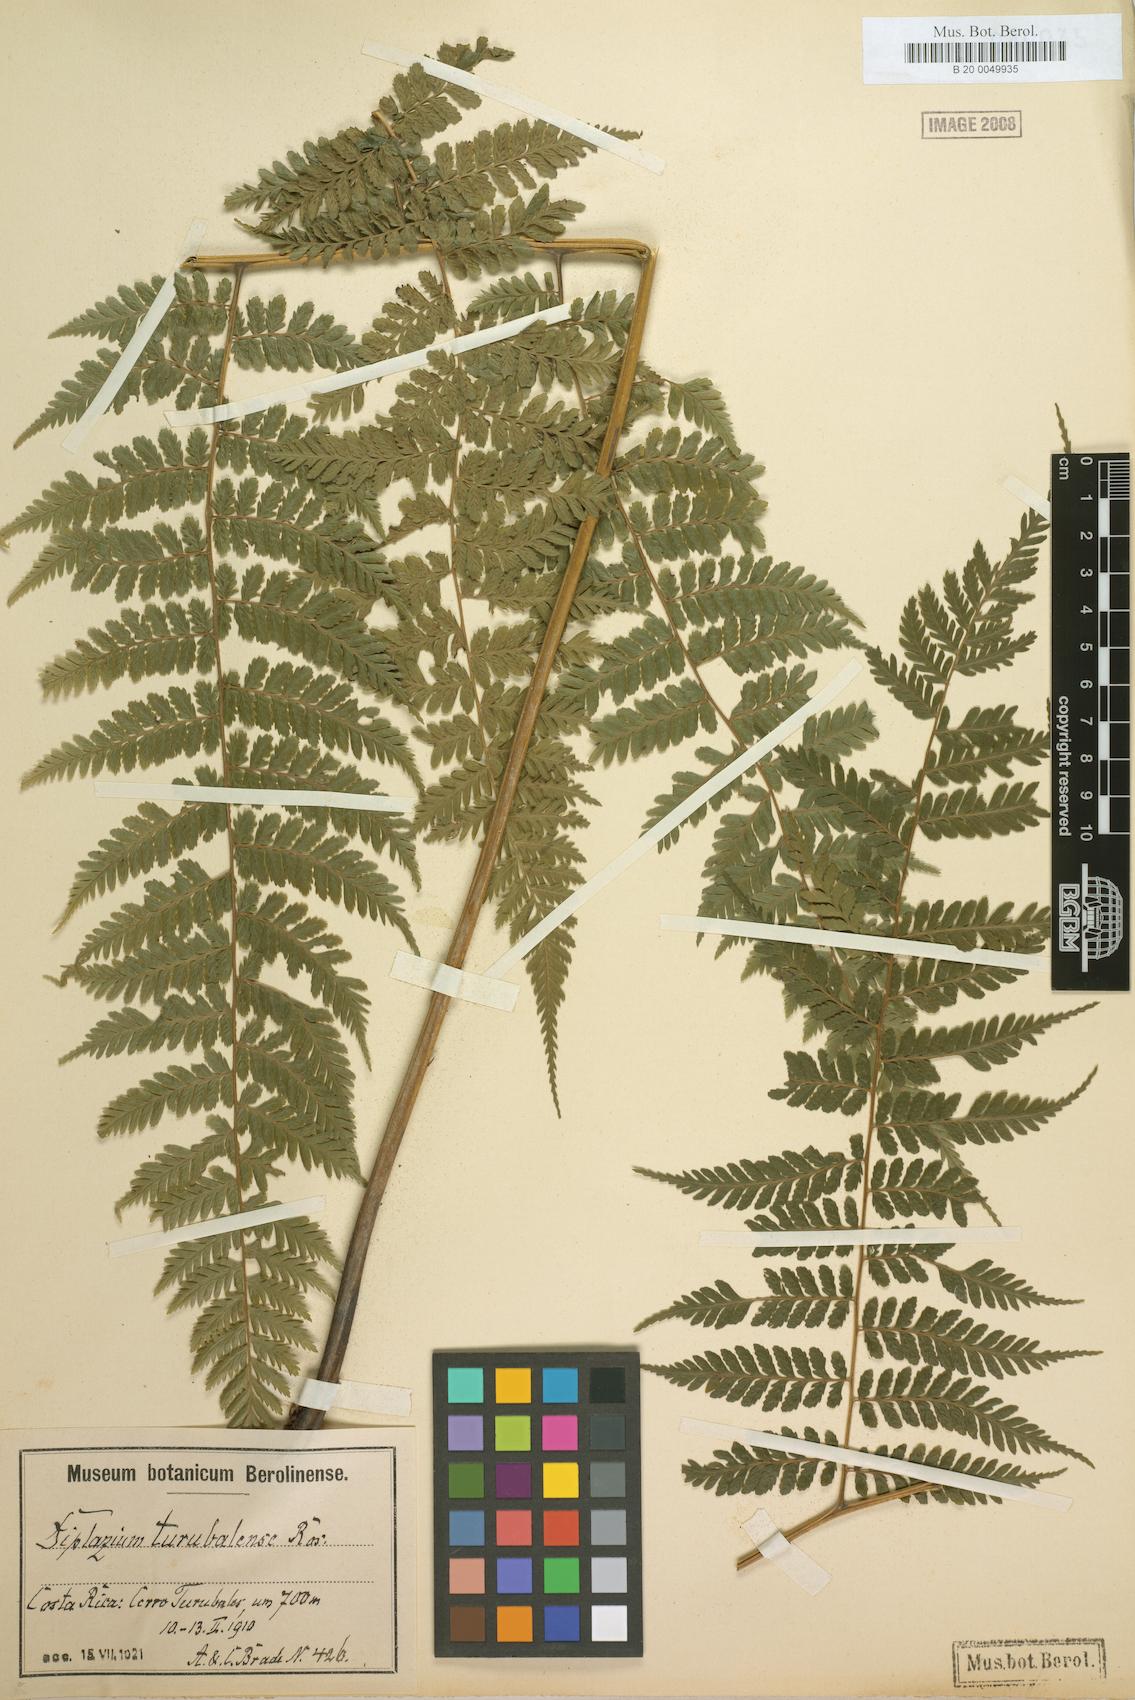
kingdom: Plantae
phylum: Tracheophyta
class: Polypodiopsida
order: Polypodiales
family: Athyriaceae
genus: Diplazium
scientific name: Diplazium turubalense
